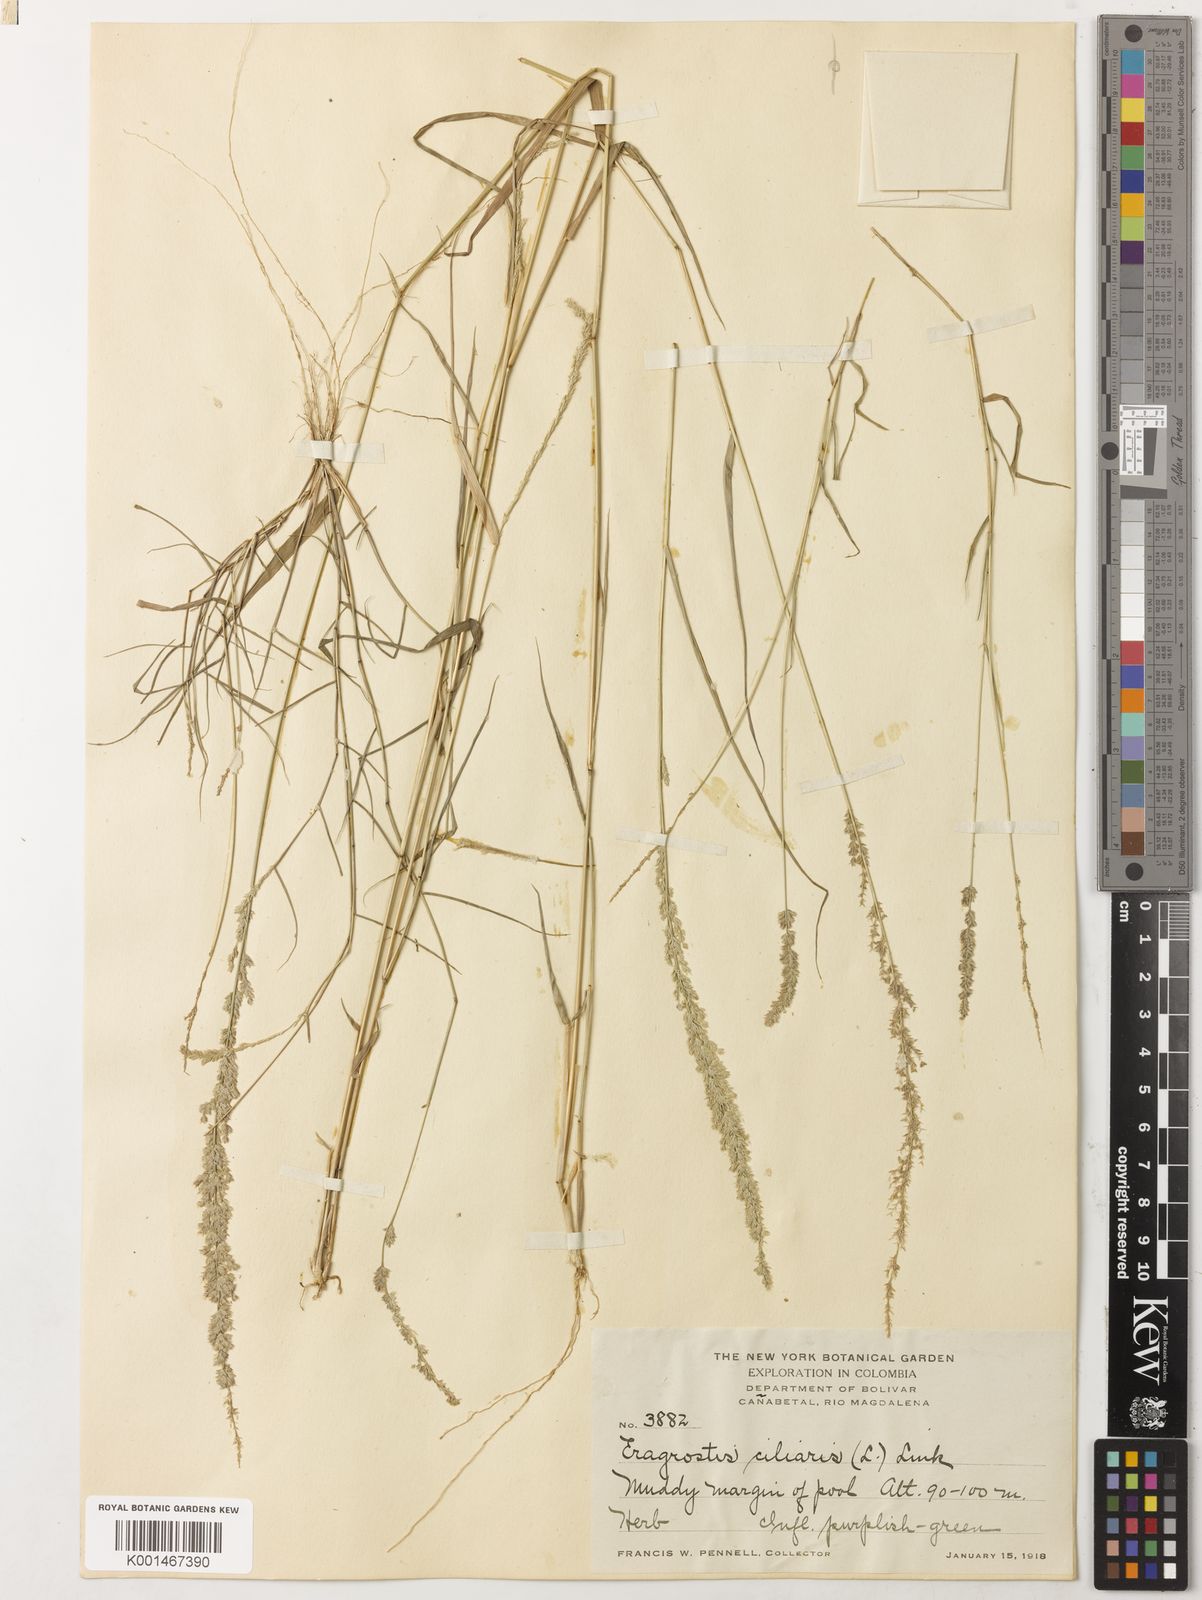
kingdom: Plantae
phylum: Tracheophyta
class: Liliopsida
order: Poales
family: Poaceae
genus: Eragrostis
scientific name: Eragrostis
